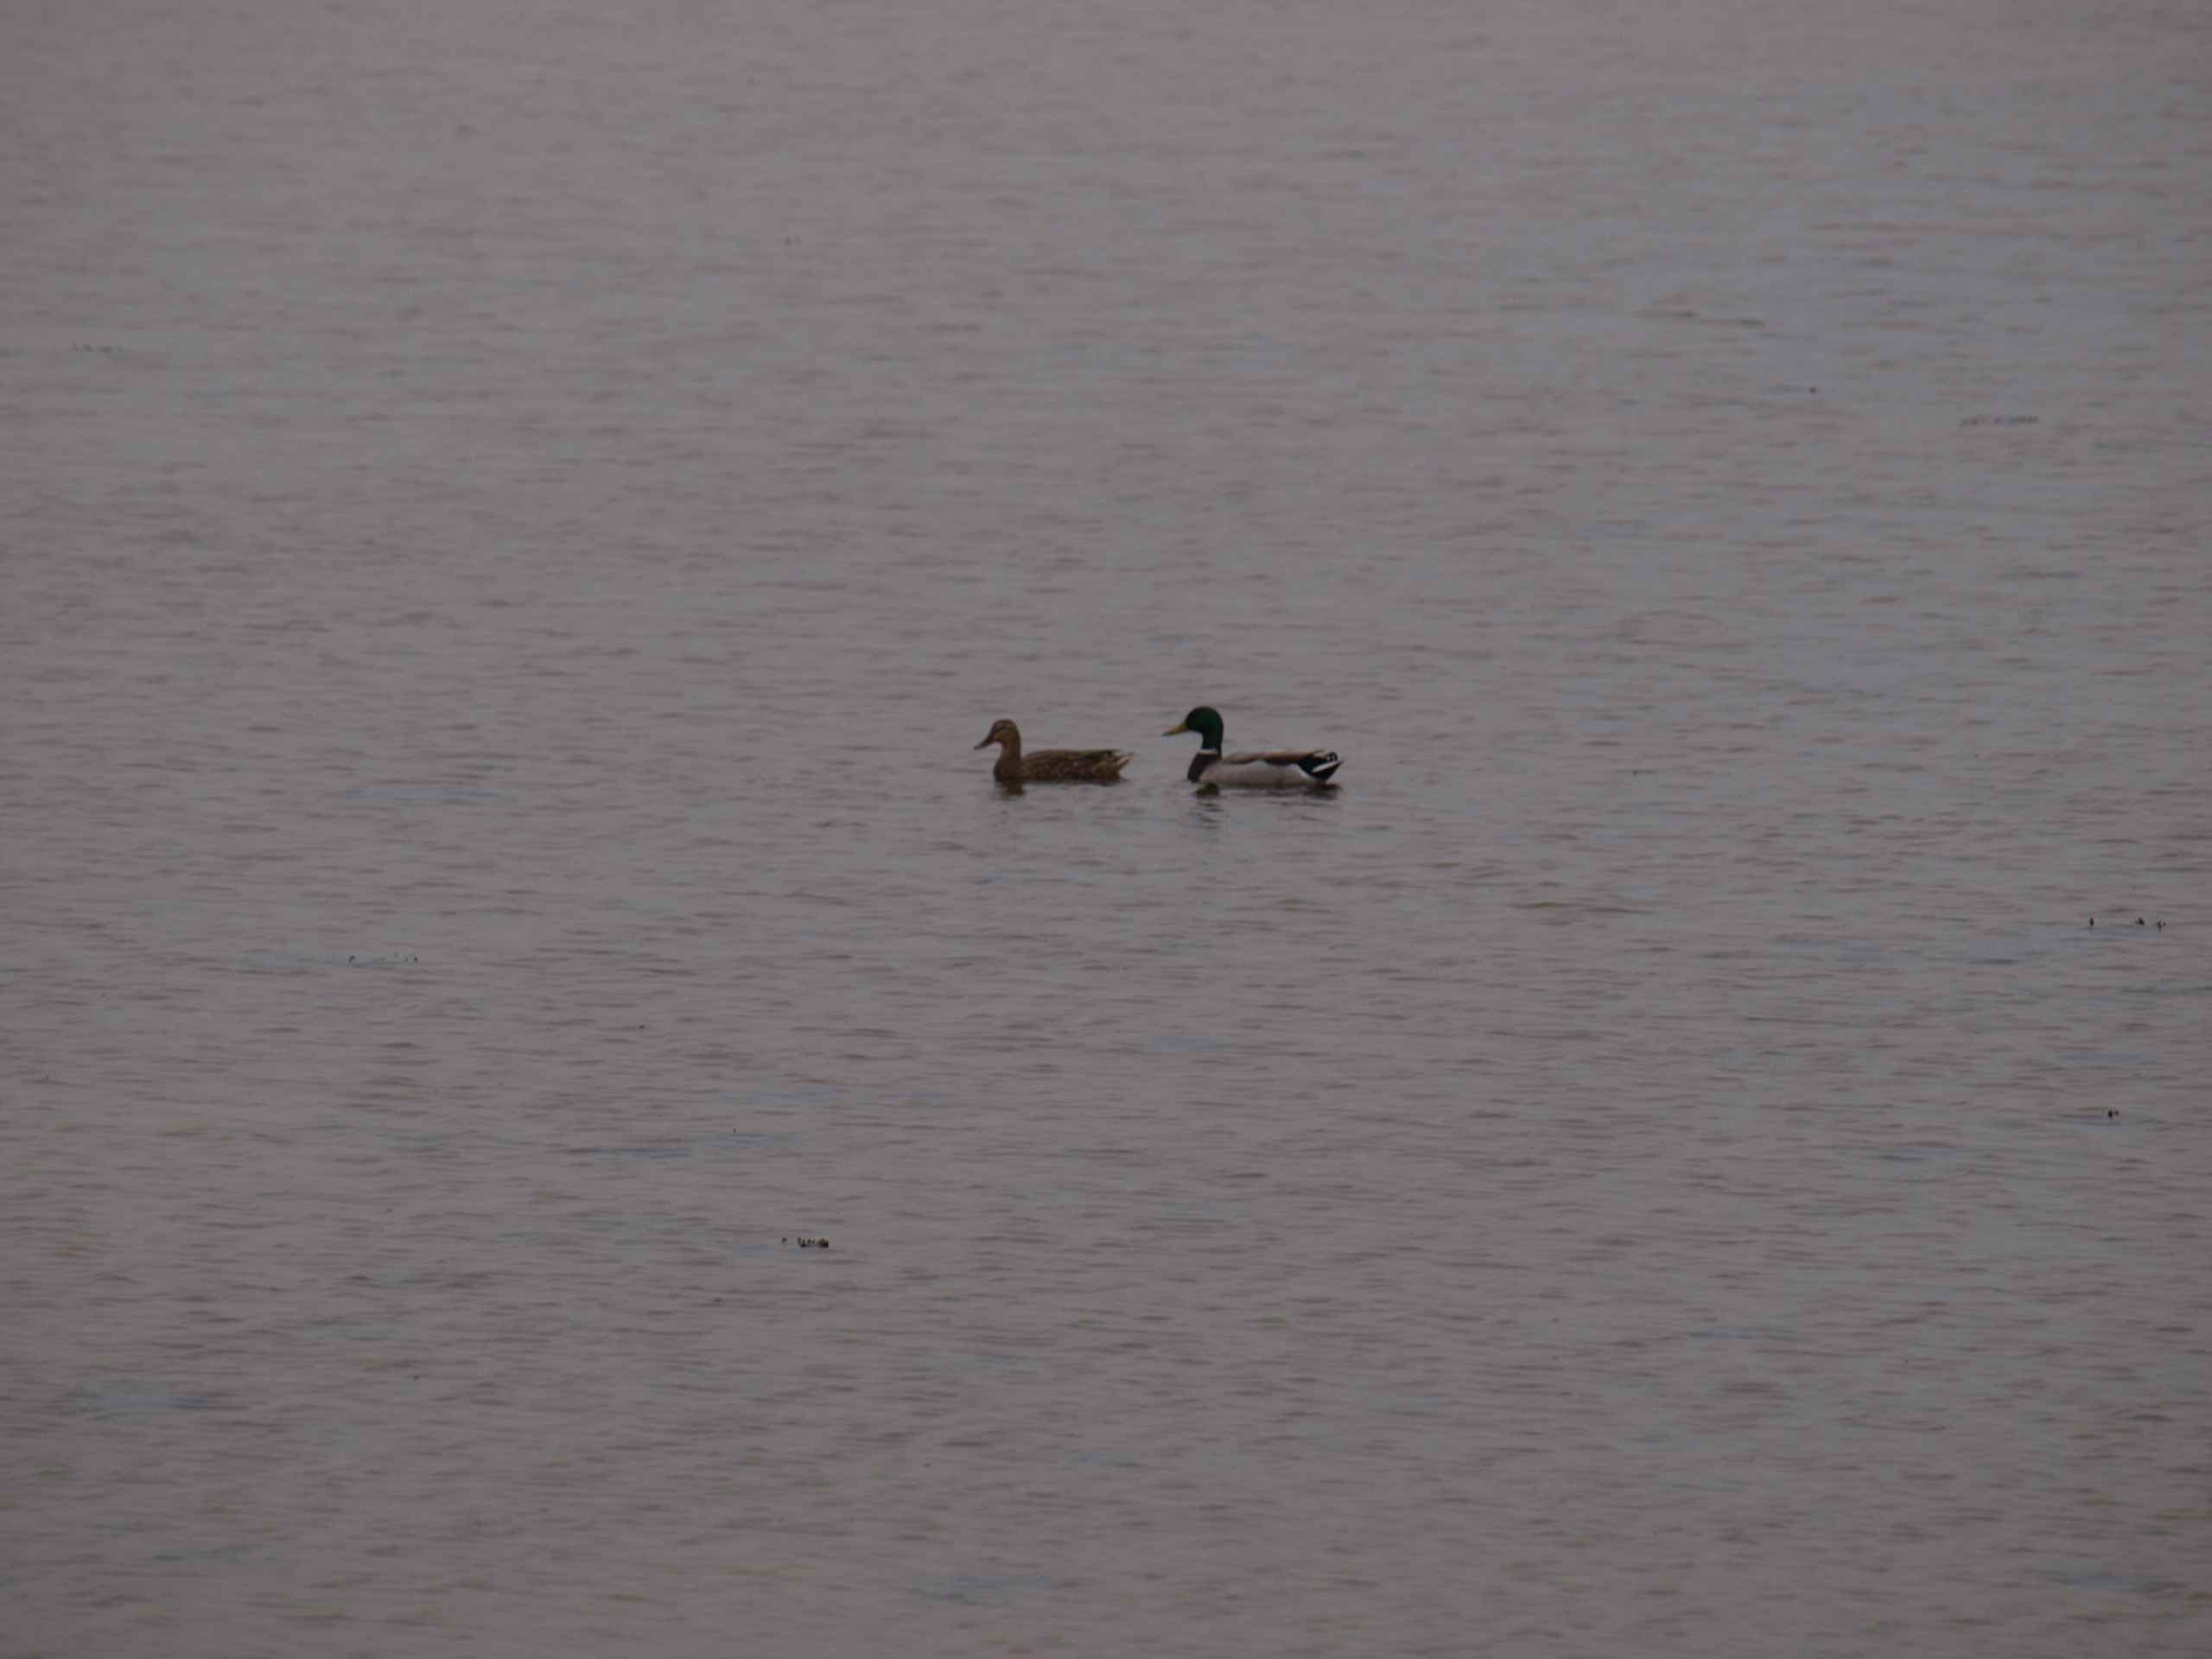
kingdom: Animalia
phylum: Chordata
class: Aves
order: Anseriformes
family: Anatidae
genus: Anas
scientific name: Anas platyrhynchos
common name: Gråand
